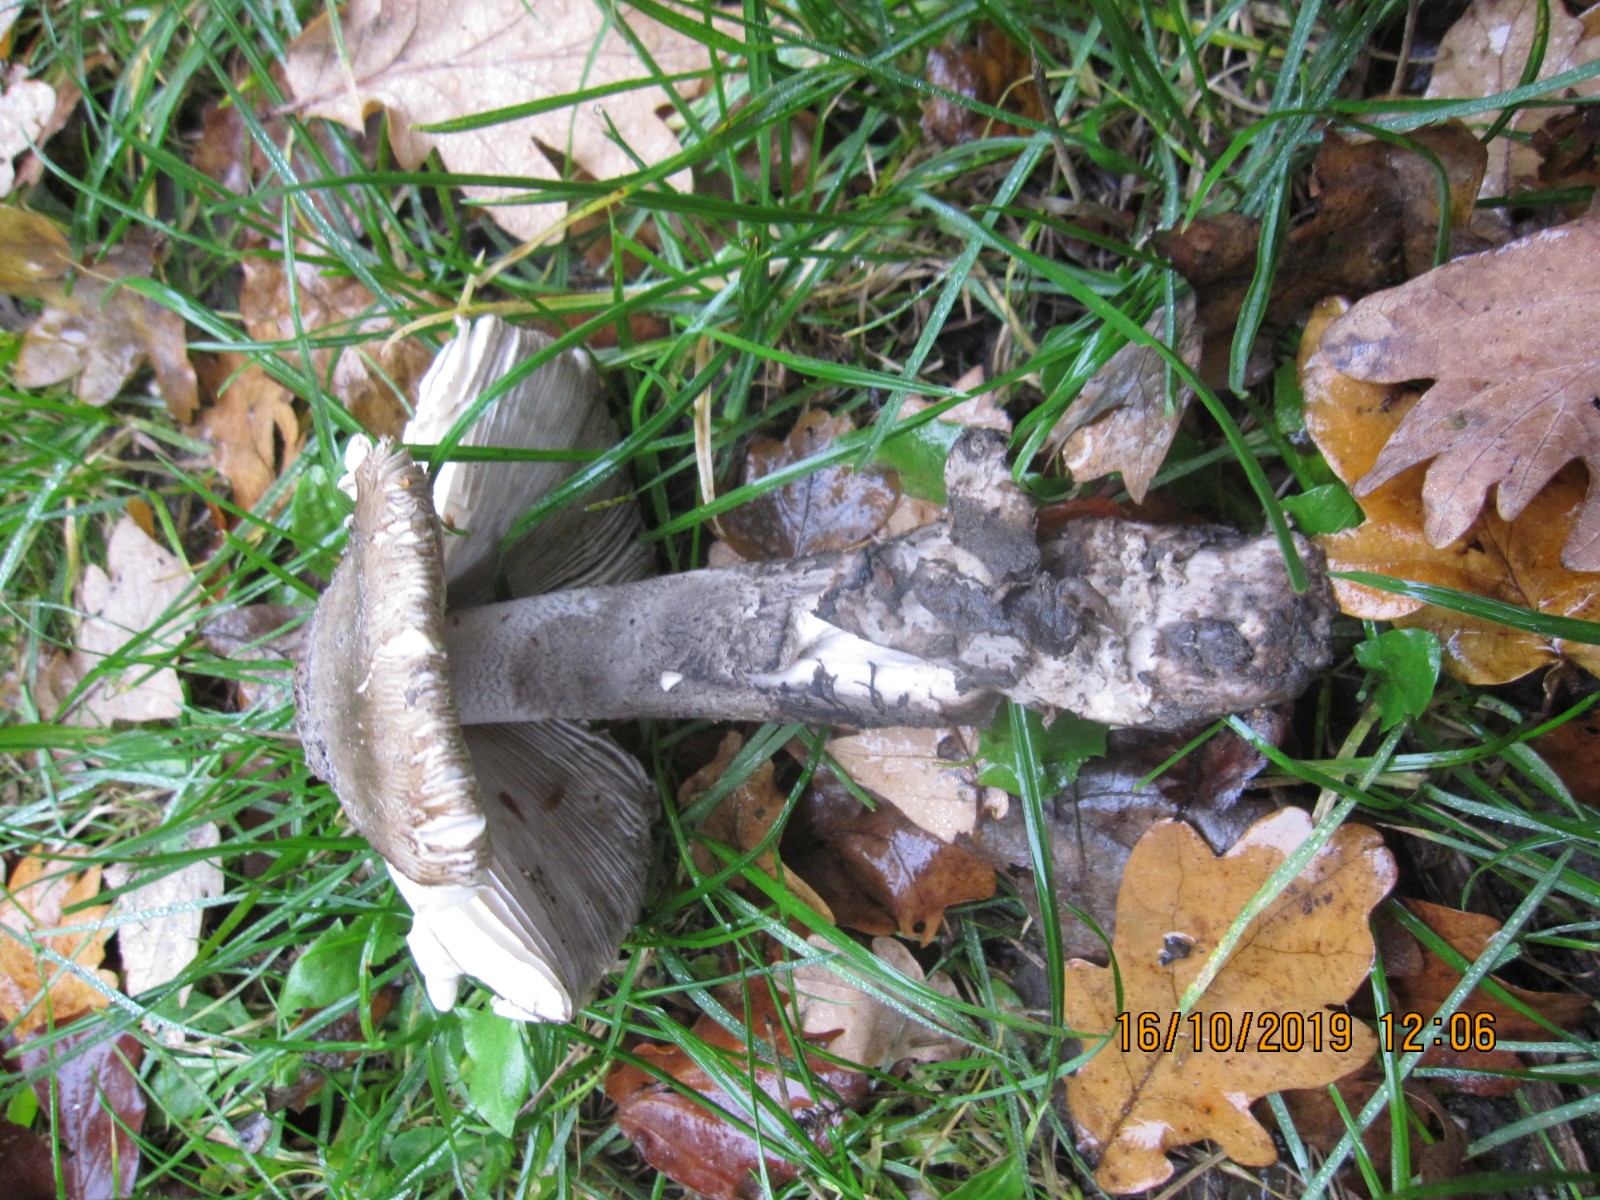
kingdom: Fungi
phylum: Basidiomycota
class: Agaricomycetes
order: Agaricales
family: Amanitaceae
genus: Amanita
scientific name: Amanita ceciliae
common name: stor kam-fluesvamp
